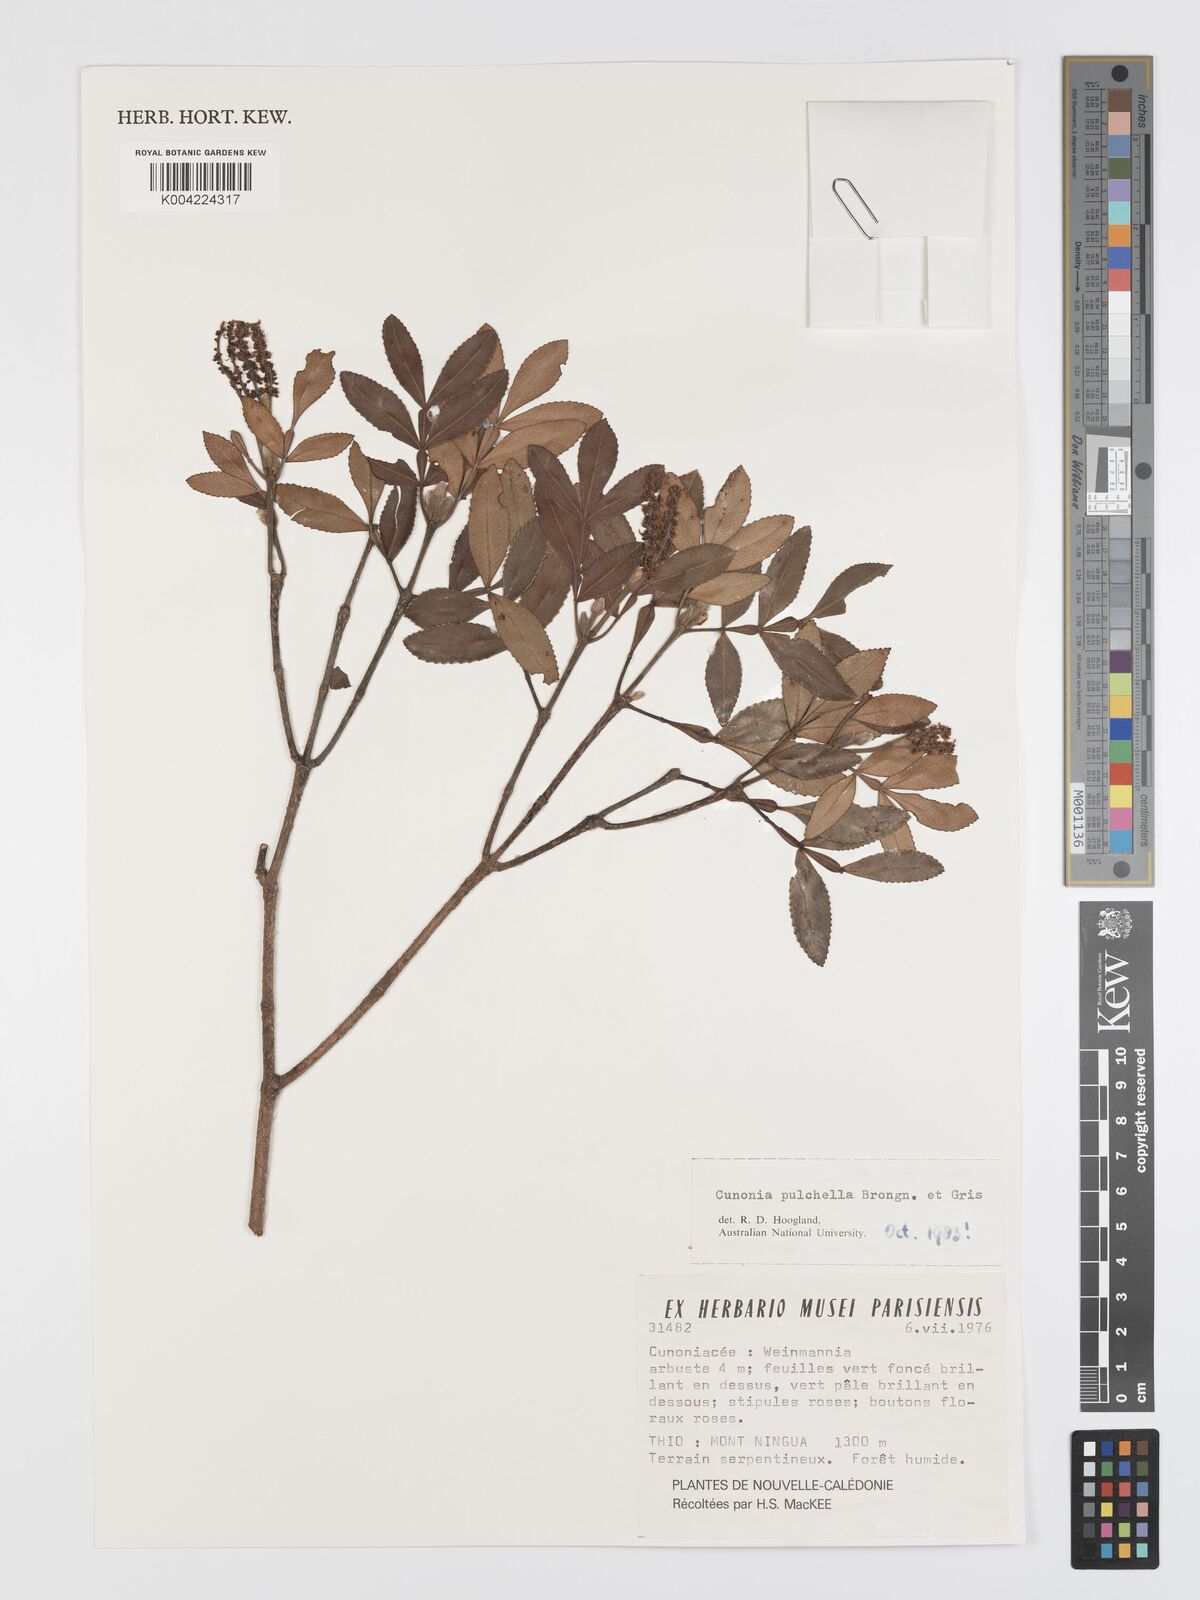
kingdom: Plantae
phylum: Tracheophyta
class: Magnoliopsida
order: Oxalidales
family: Cunoniaceae
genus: Cunonia
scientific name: Cunonia pulchella
